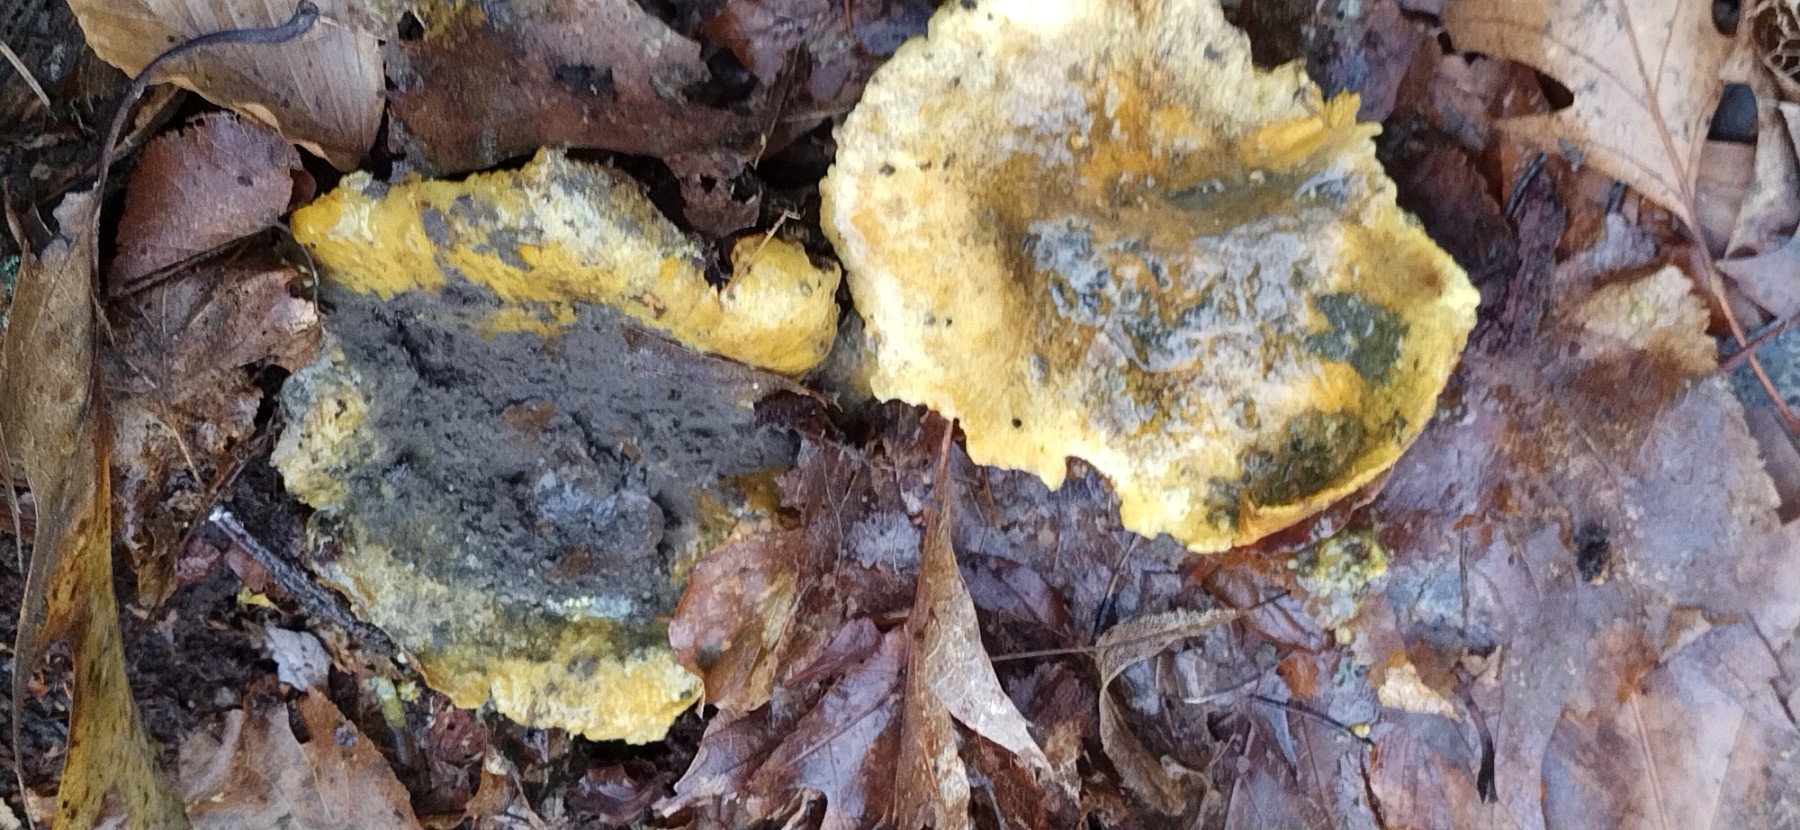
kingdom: Fungi
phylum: Basidiomycota
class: Agaricomycetes
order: Boletales
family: Sclerodermataceae
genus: Scleroderma
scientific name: Scleroderma citrinum
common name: almindelig bruskbold
